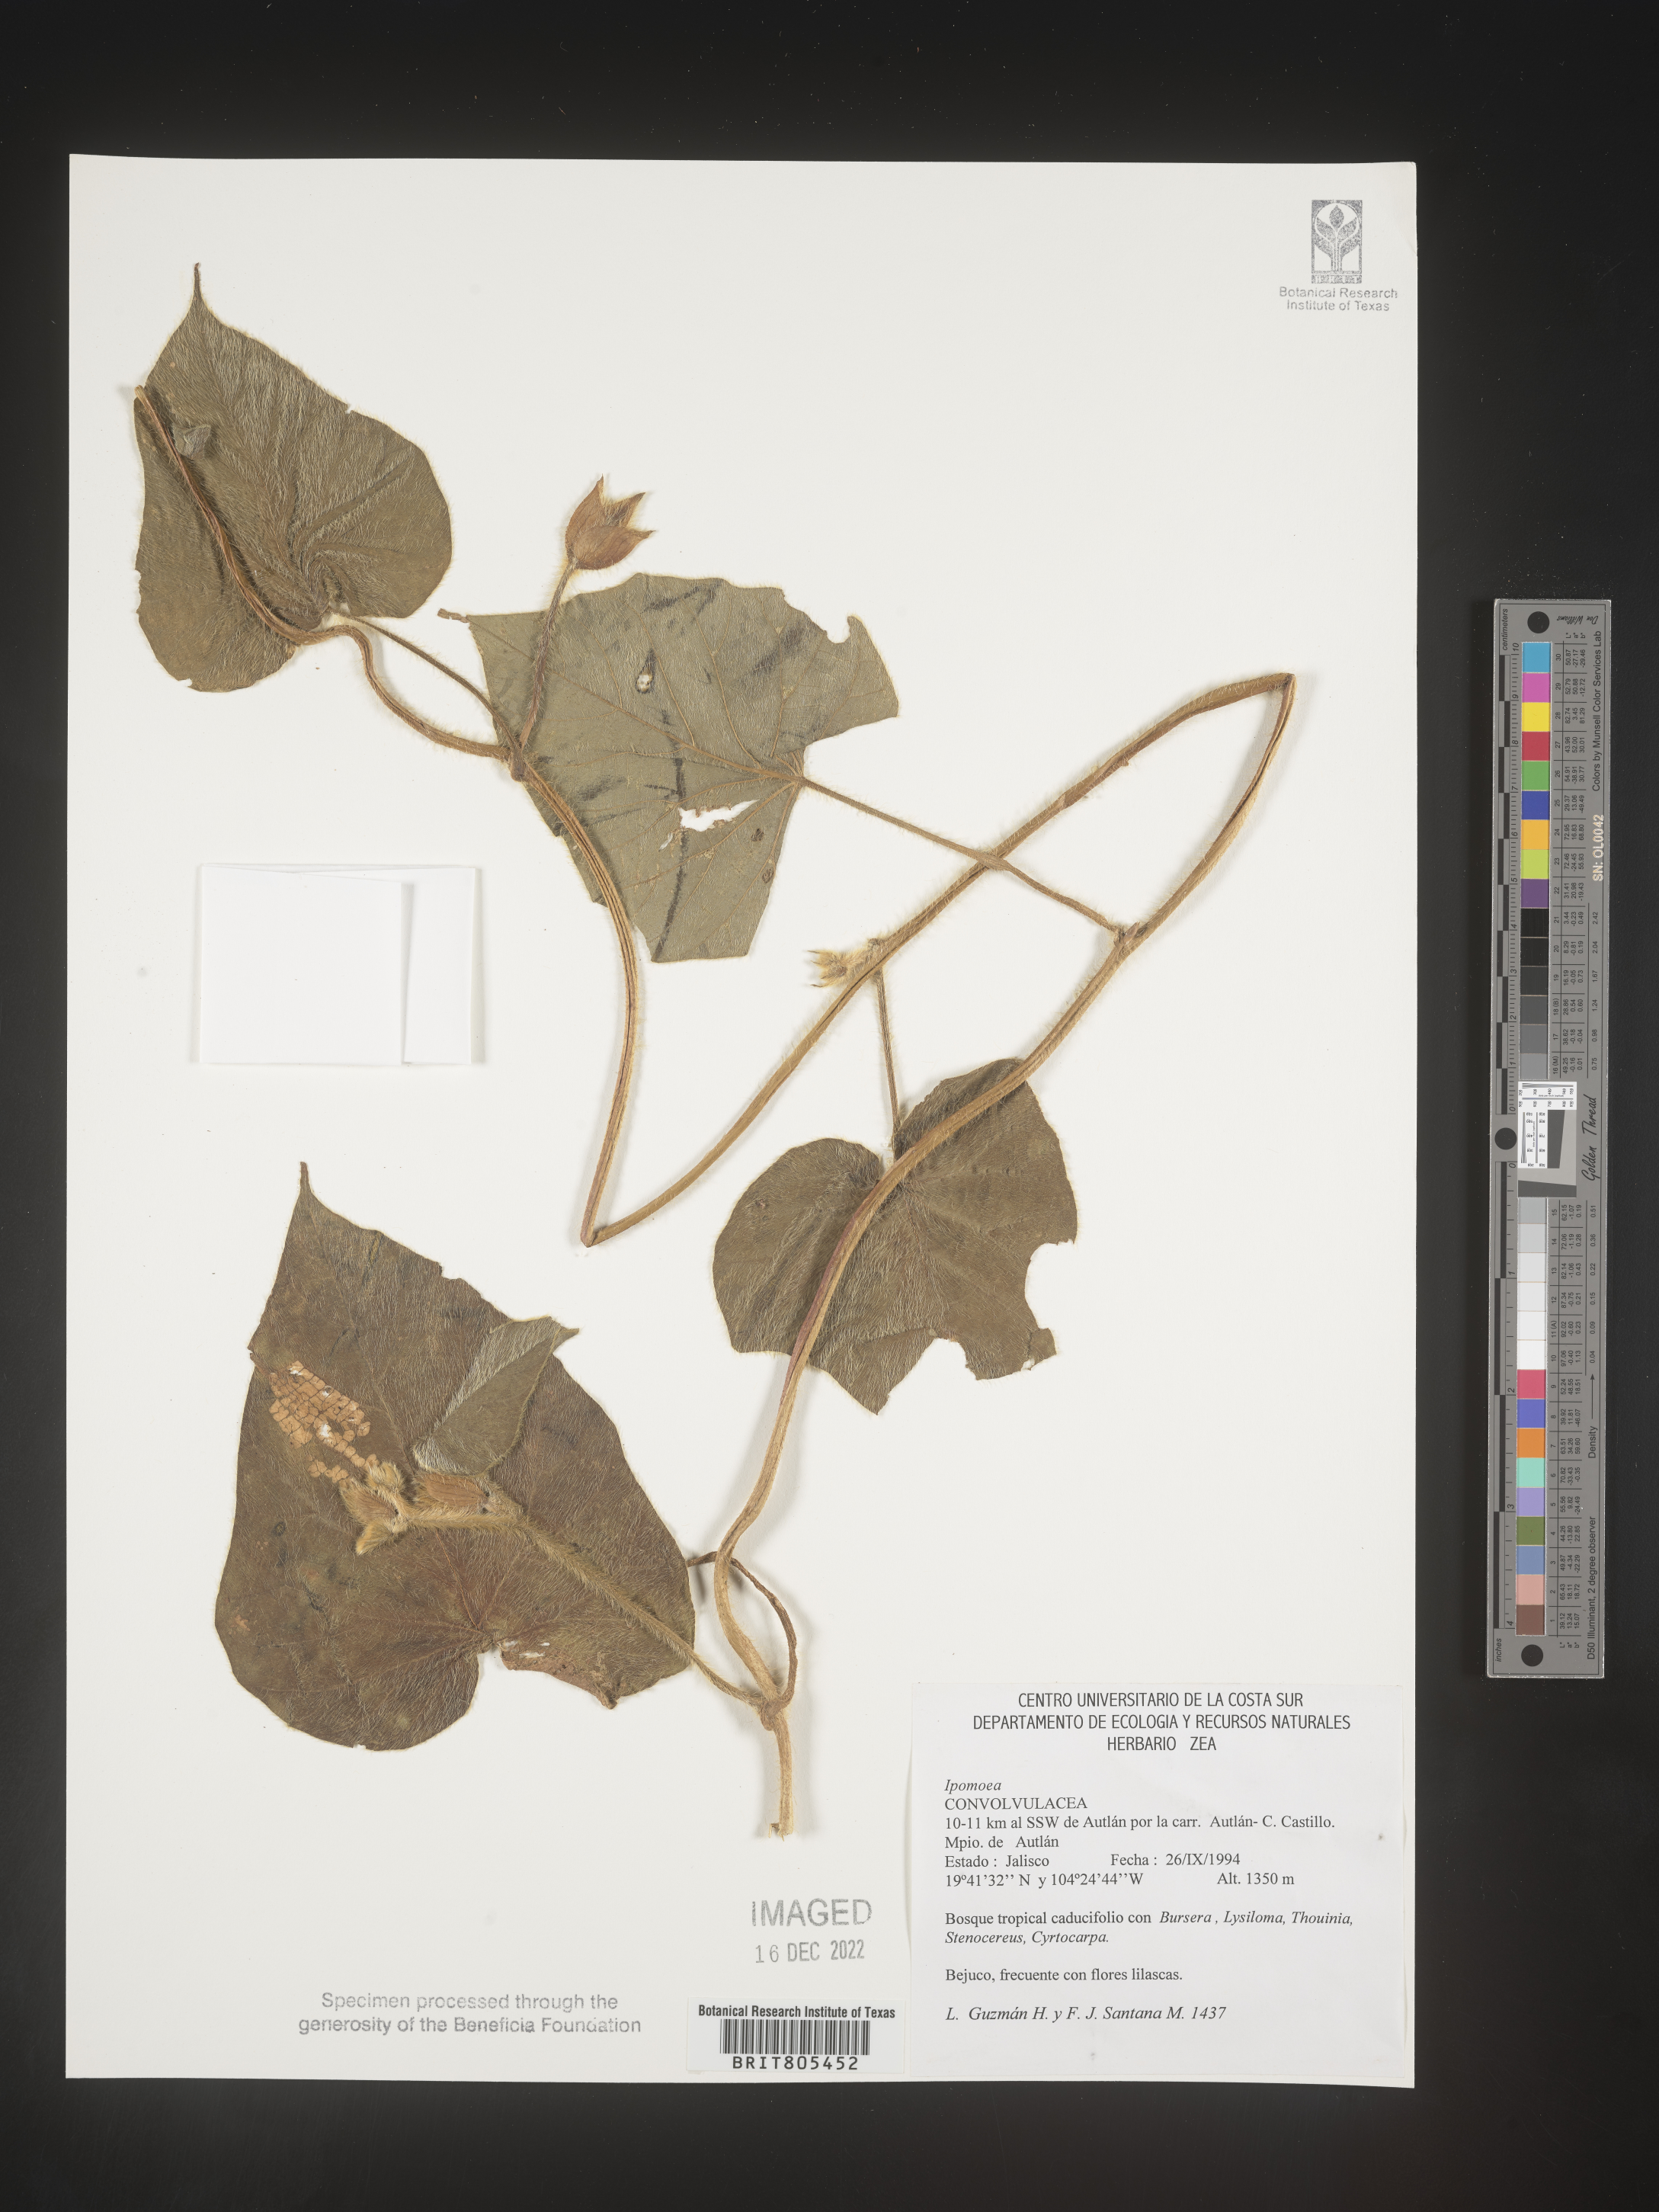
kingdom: Plantae
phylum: Tracheophyta
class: Magnoliopsida
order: Solanales
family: Convolvulaceae
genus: Ipomoea
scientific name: Ipomoea
